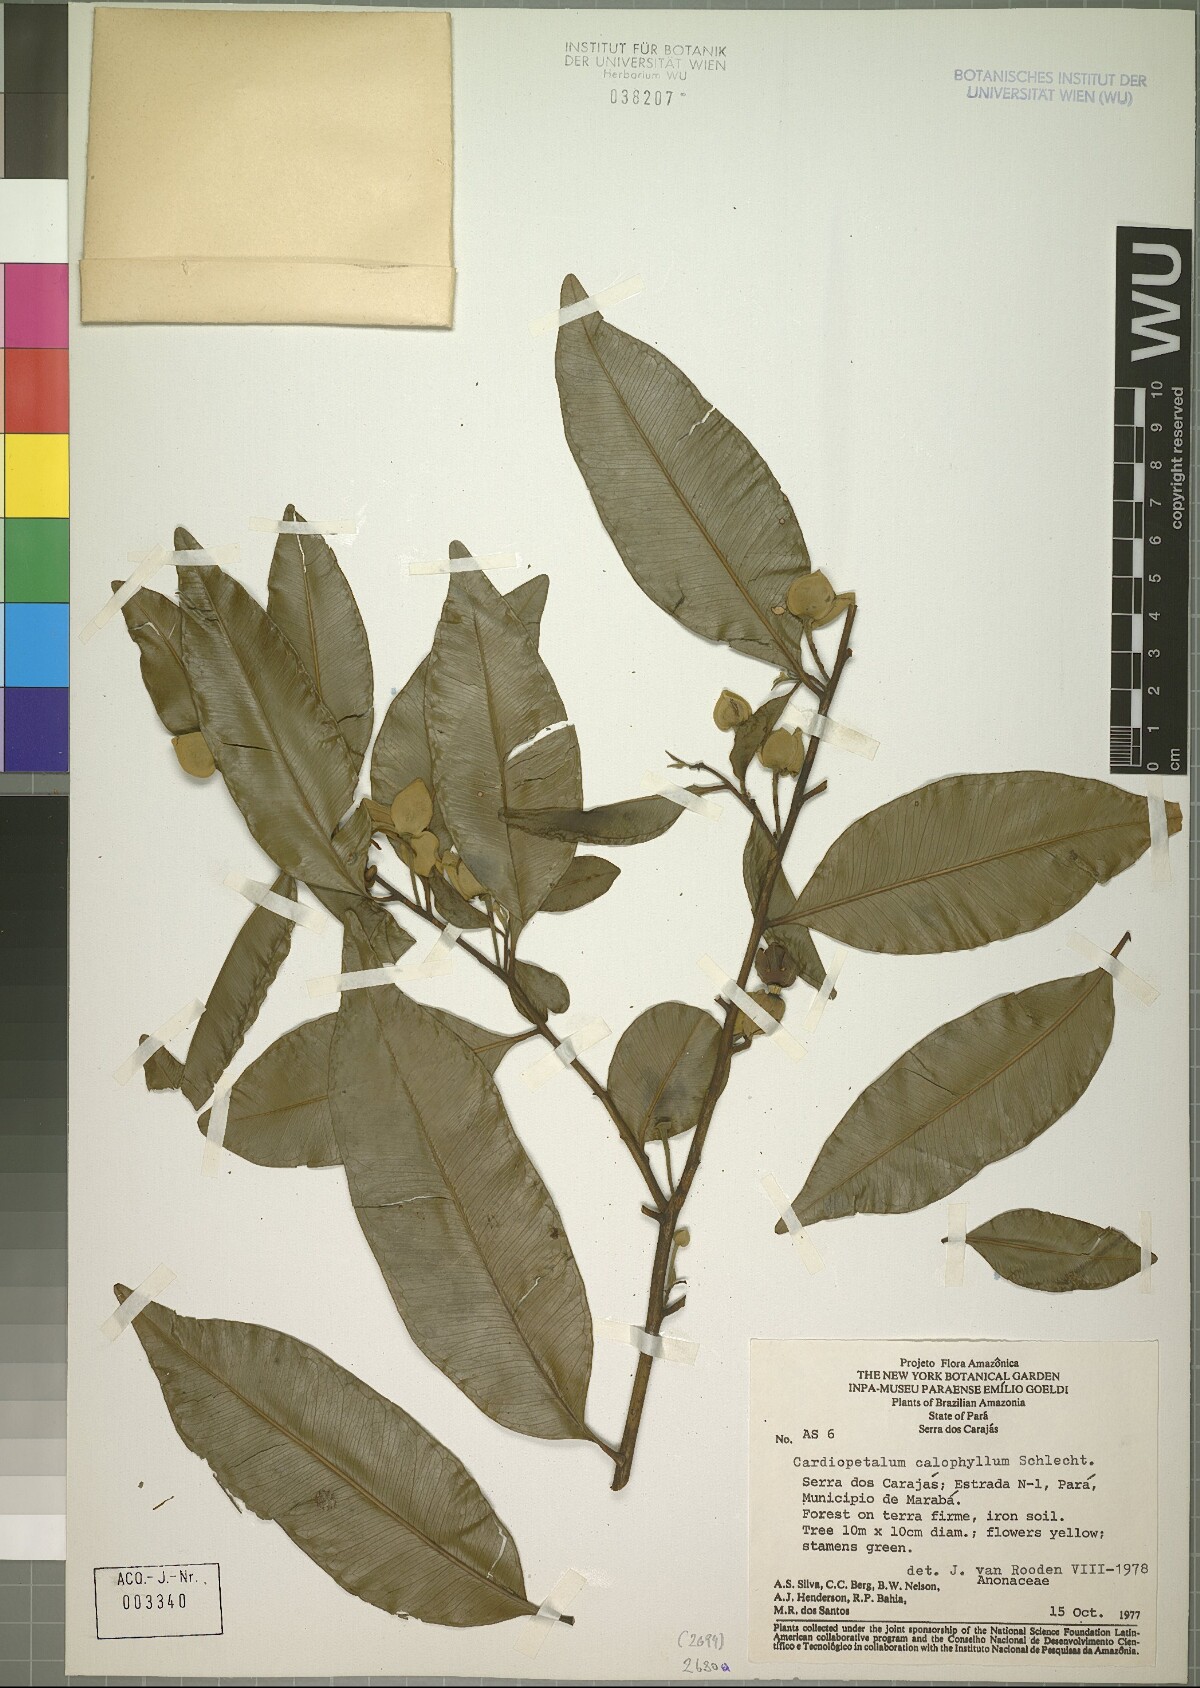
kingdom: Plantae
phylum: Tracheophyta
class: Magnoliopsida
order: Magnoliales
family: Annonaceae
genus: Cardiopetalum
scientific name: Cardiopetalum calophyllum
